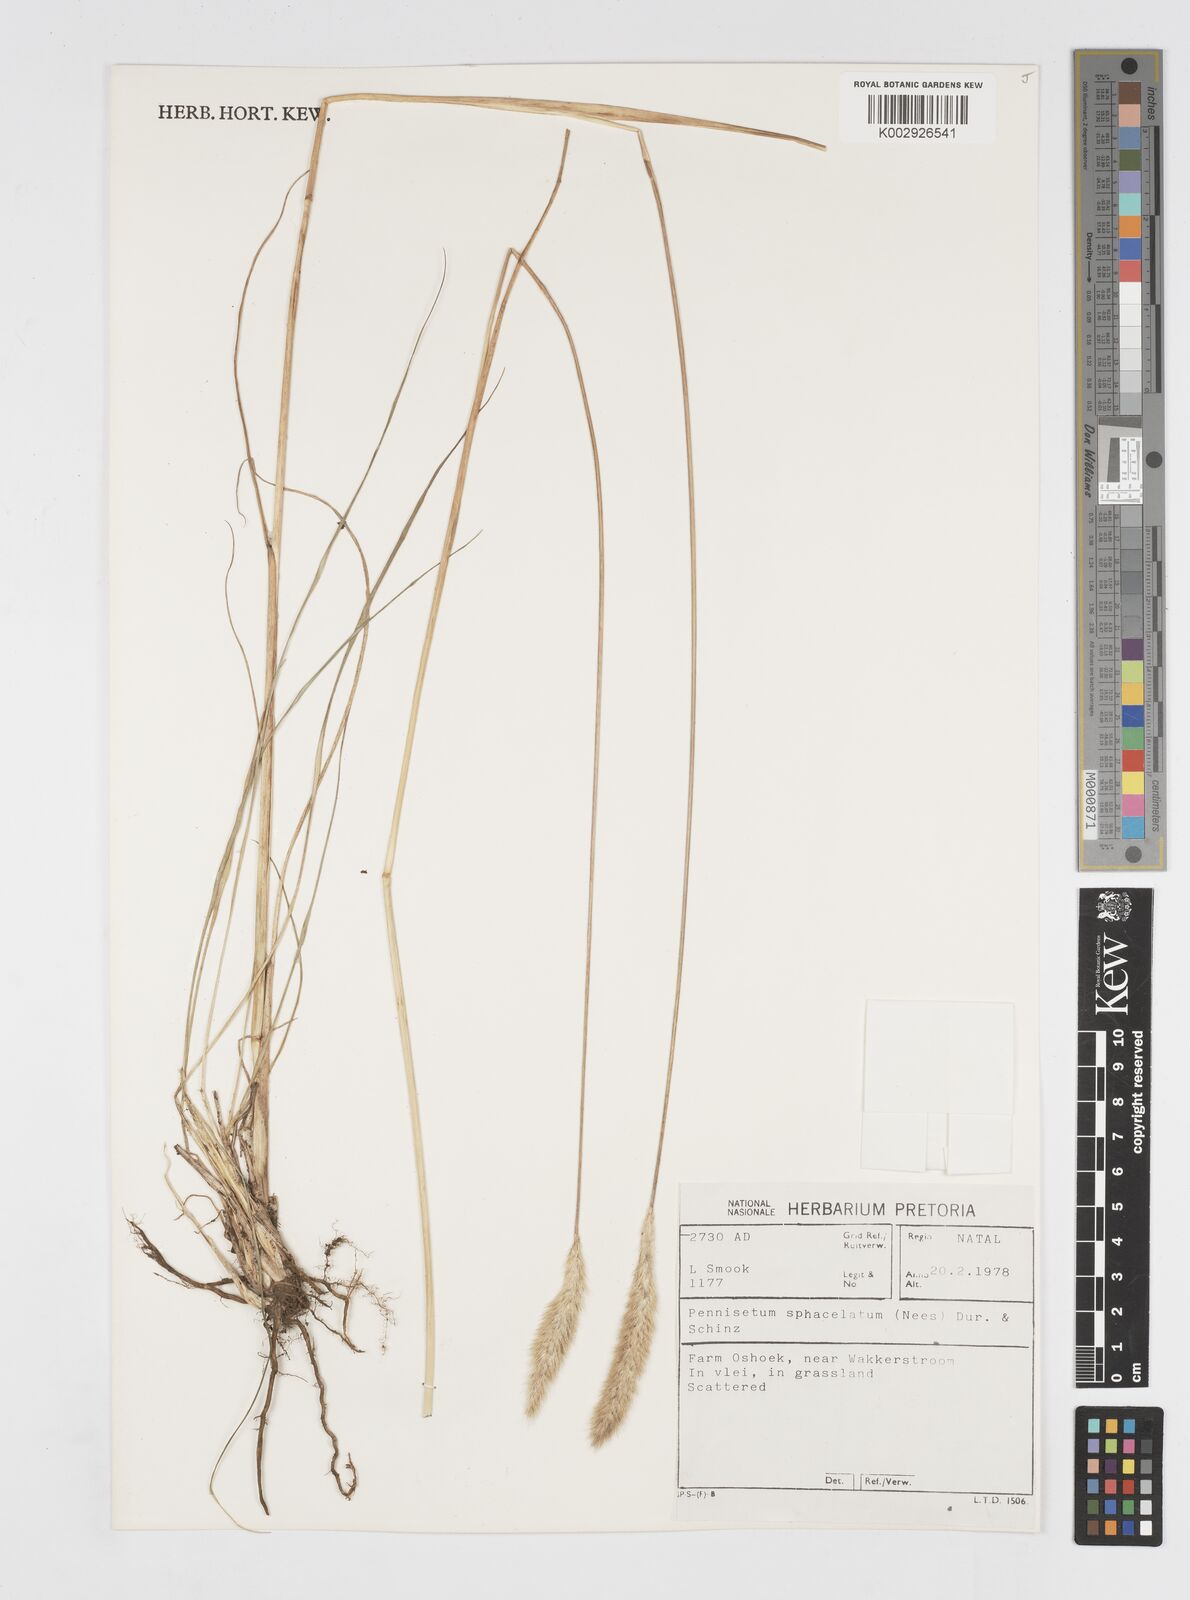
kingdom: Plantae
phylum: Tracheophyta
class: Liliopsida
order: Poales
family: Poaceae
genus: Cenchrus
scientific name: Cenchrus sphacelatus
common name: Bulgras
